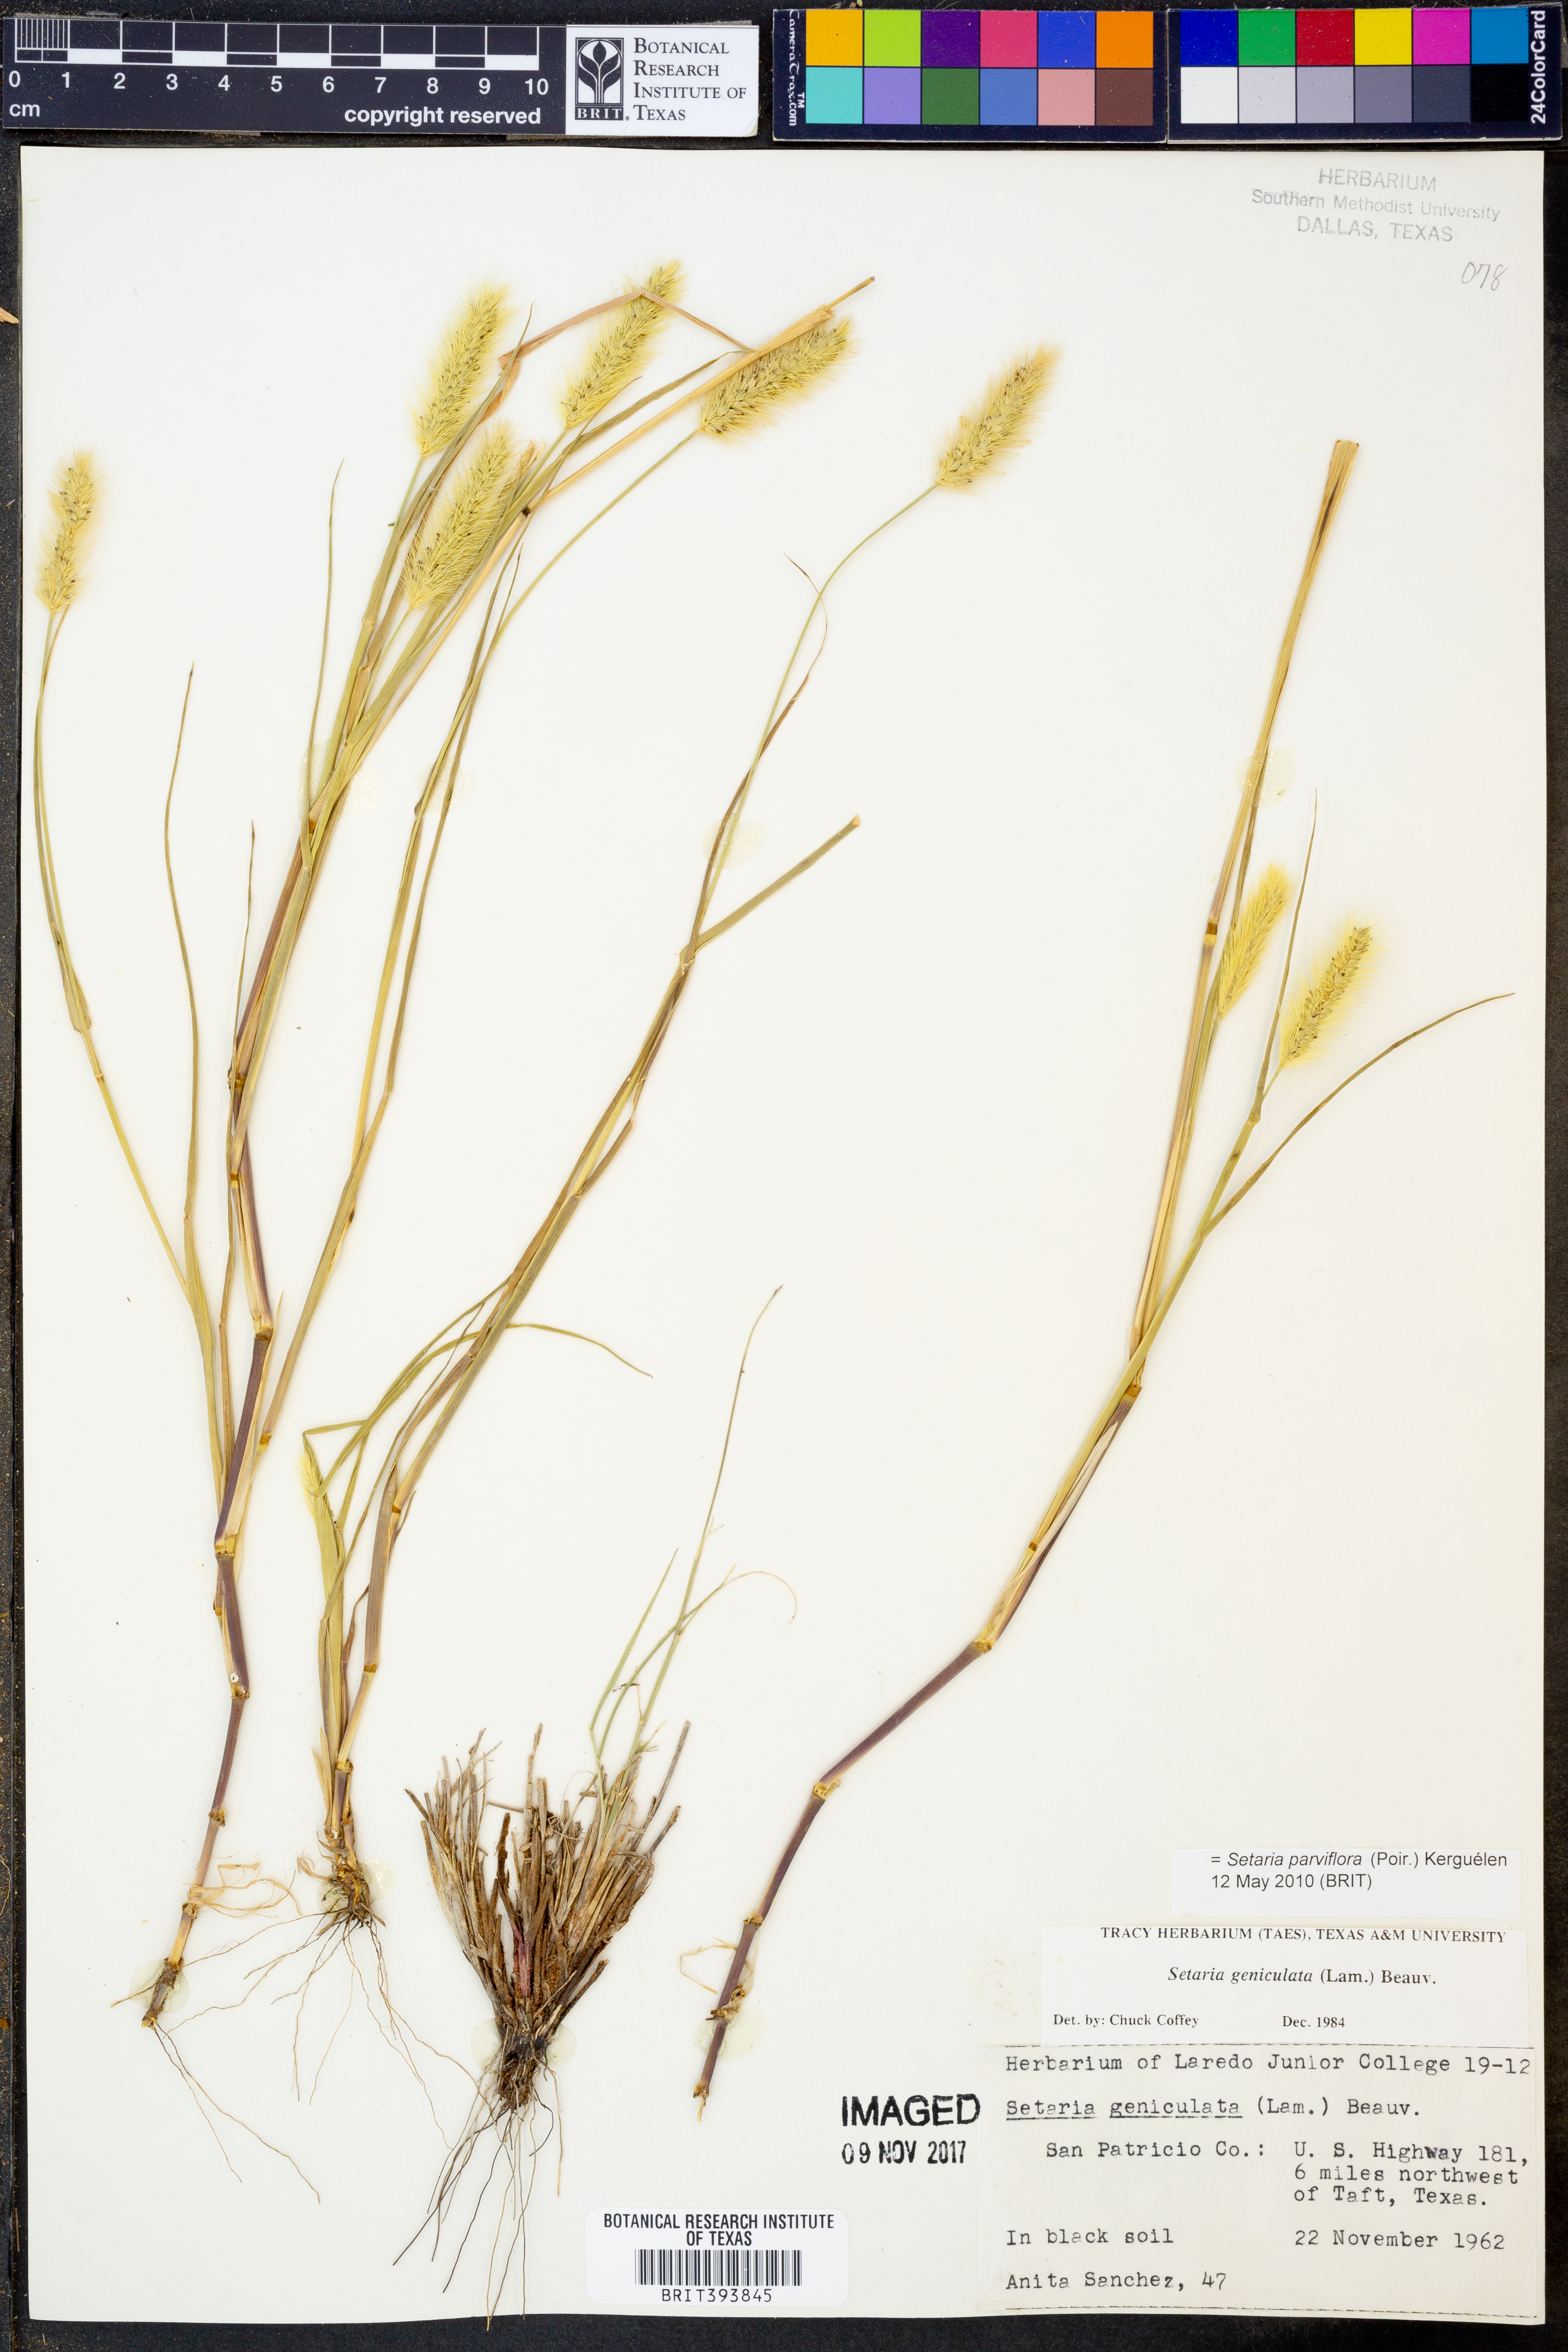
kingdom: Plantae
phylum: Tracheophyta
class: Liliopsida
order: Poales
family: Poaceae
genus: Setaria
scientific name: Setaria parviflora
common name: Knotroot bristle-grass
